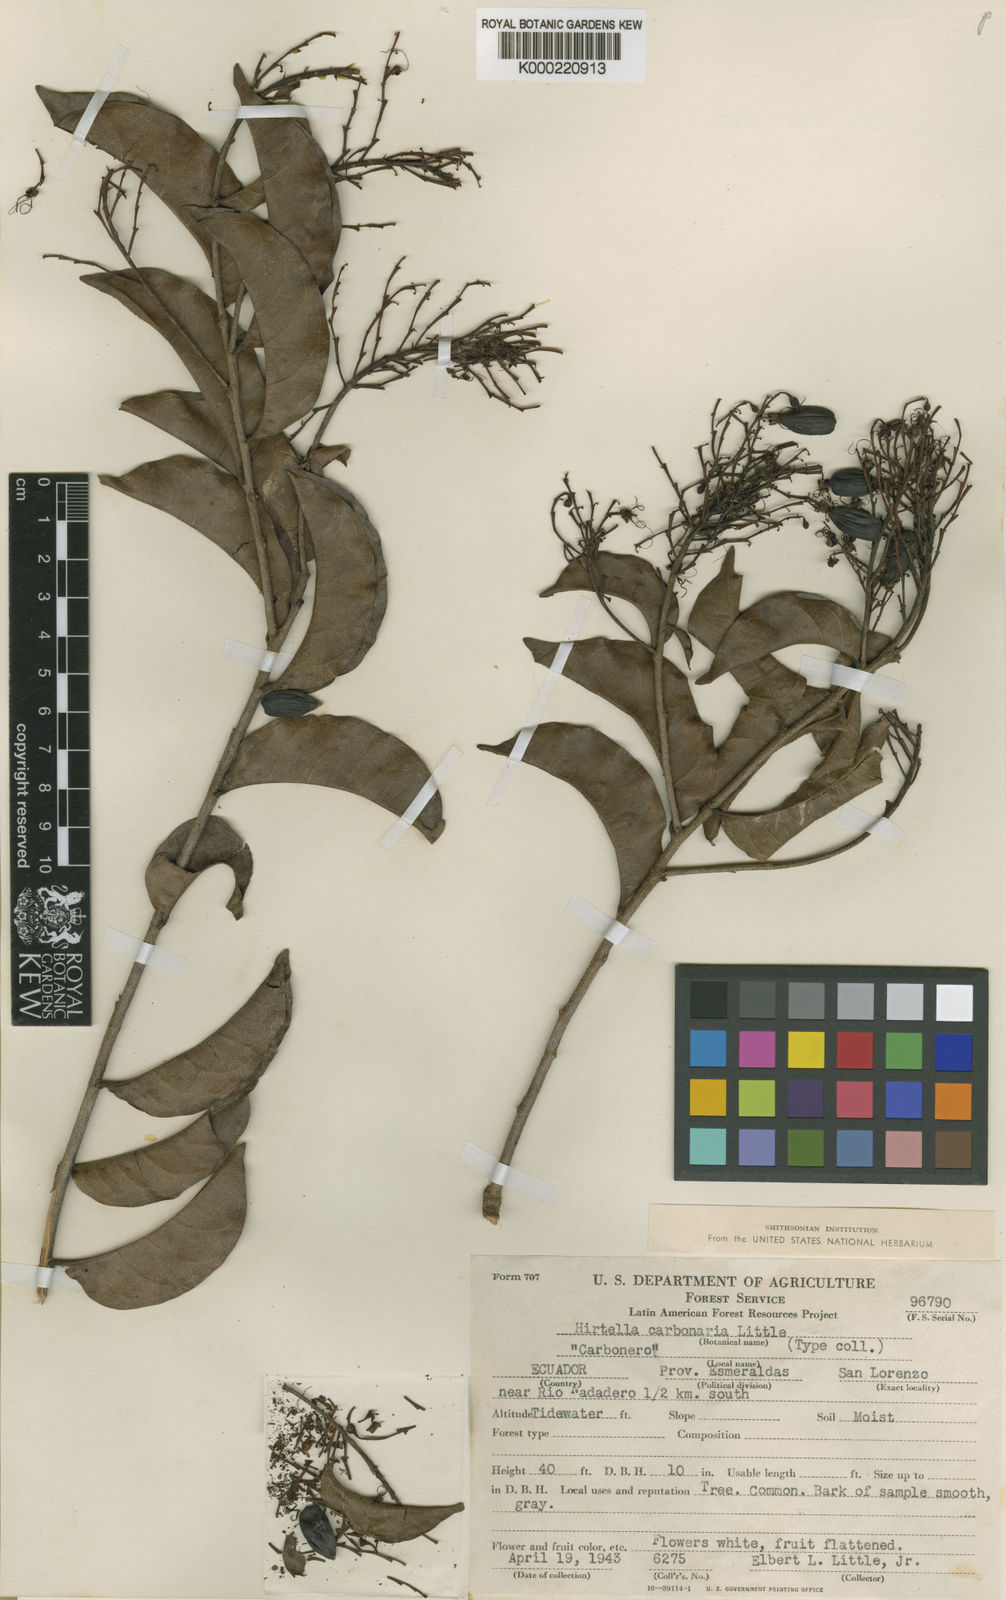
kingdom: Plantae
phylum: Tracheophyta
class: Magnoliopsida
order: Malpighiales
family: Chrysobalanaceae
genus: Hirtella
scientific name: Hirtella carbonaria
